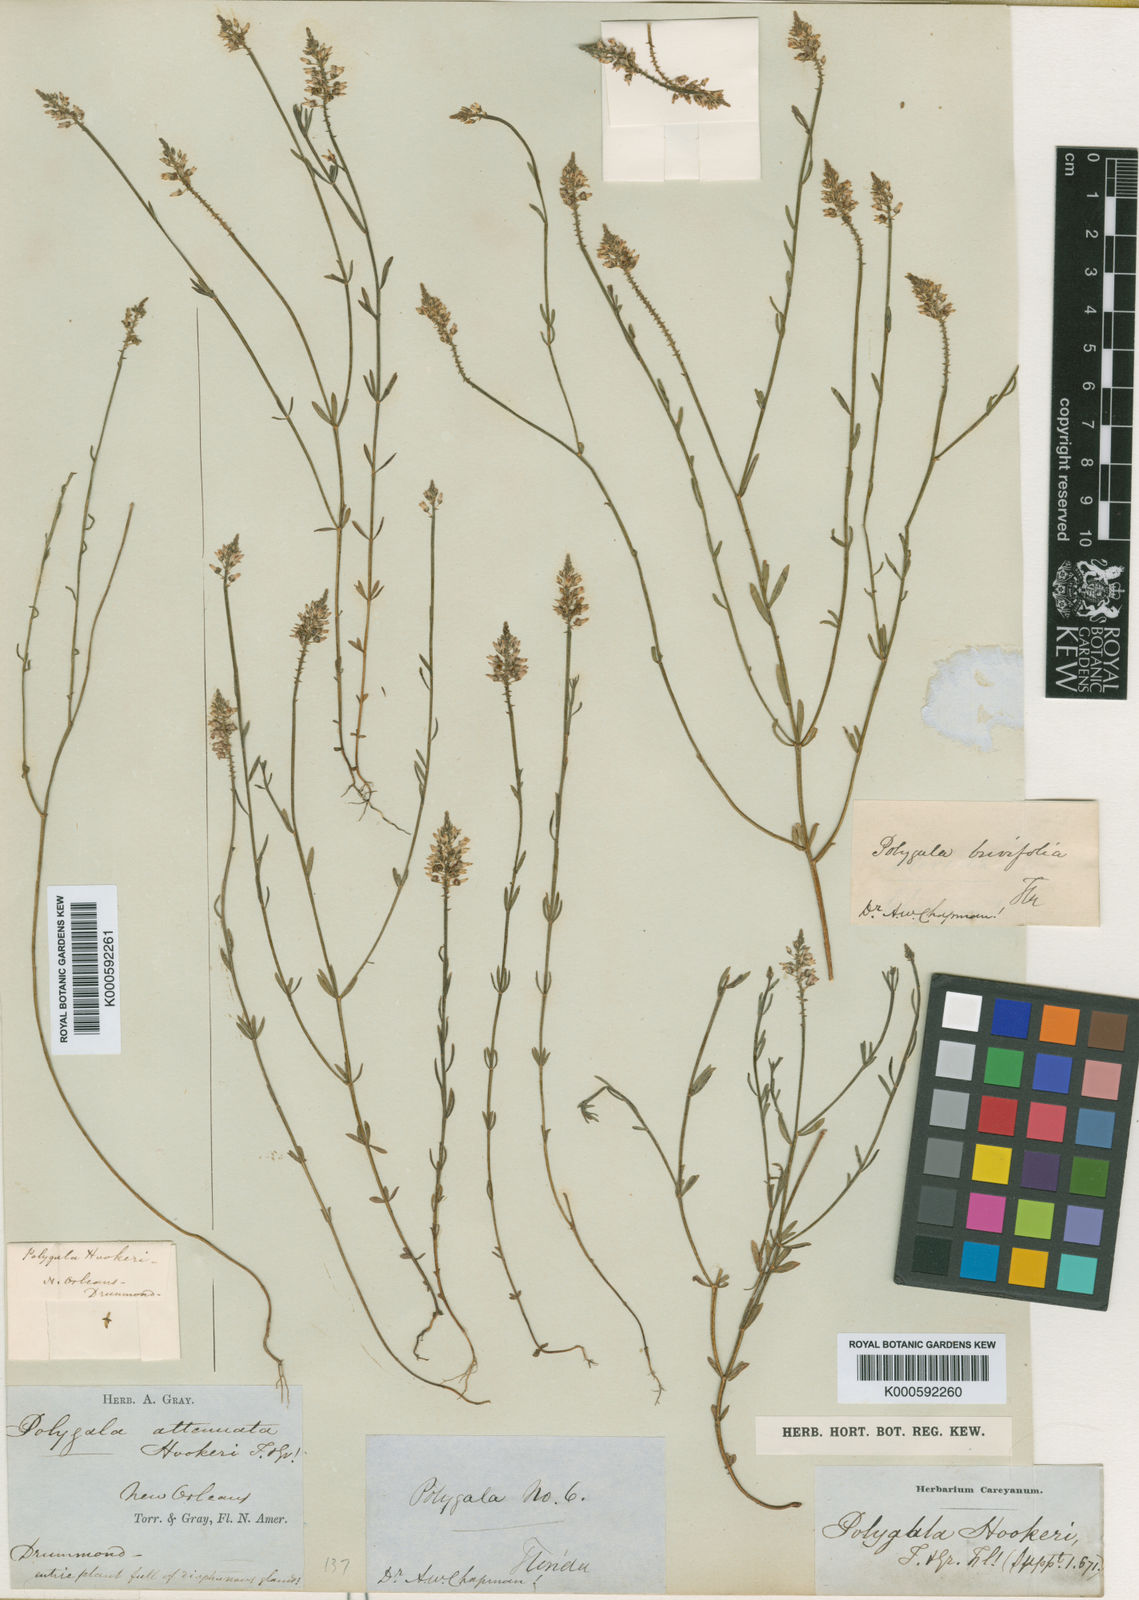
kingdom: Plantae
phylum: Tracheophyta
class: Magnoliopsida
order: Fabales
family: Polygalaceae
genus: Polygala
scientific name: Polygala hookeri
